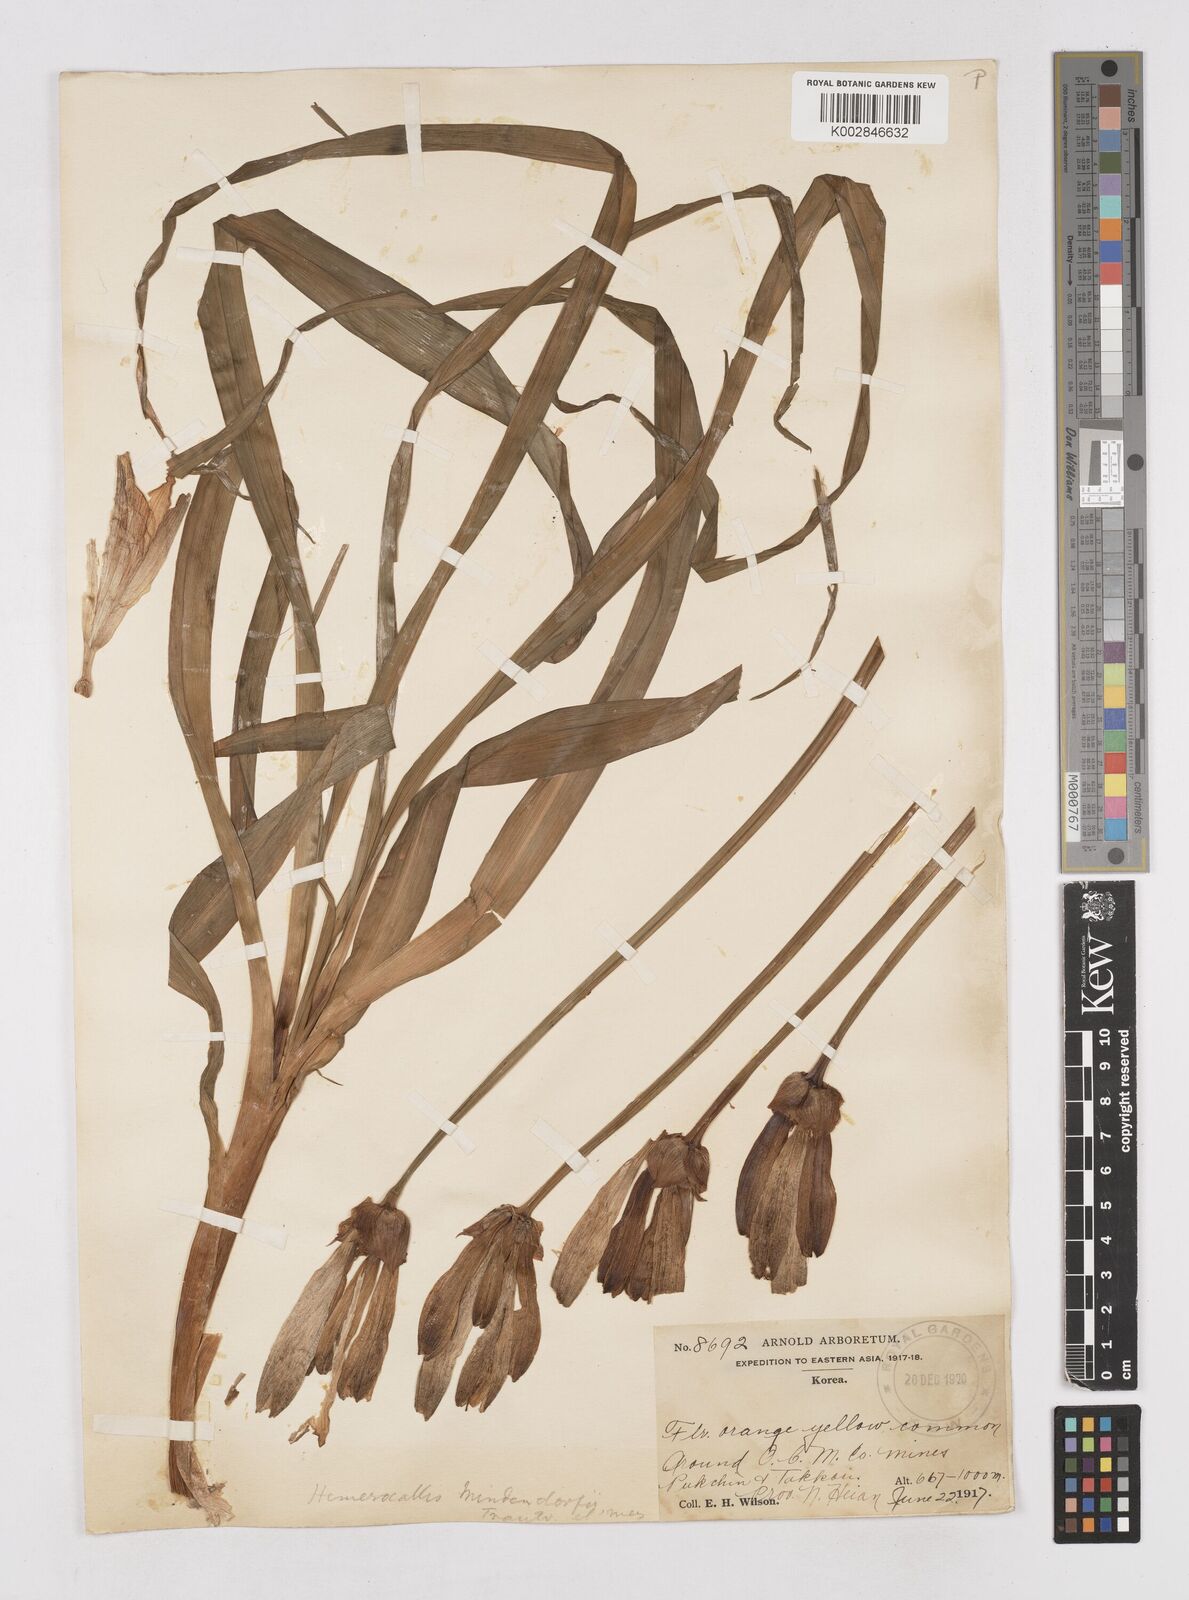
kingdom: Plantae
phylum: Tracheophyta
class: Liliopsida
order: Asparagales
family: Asphodelaceae
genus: Hemerocallis
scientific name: Hemerocallis middendorffii
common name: Amur day-lily
